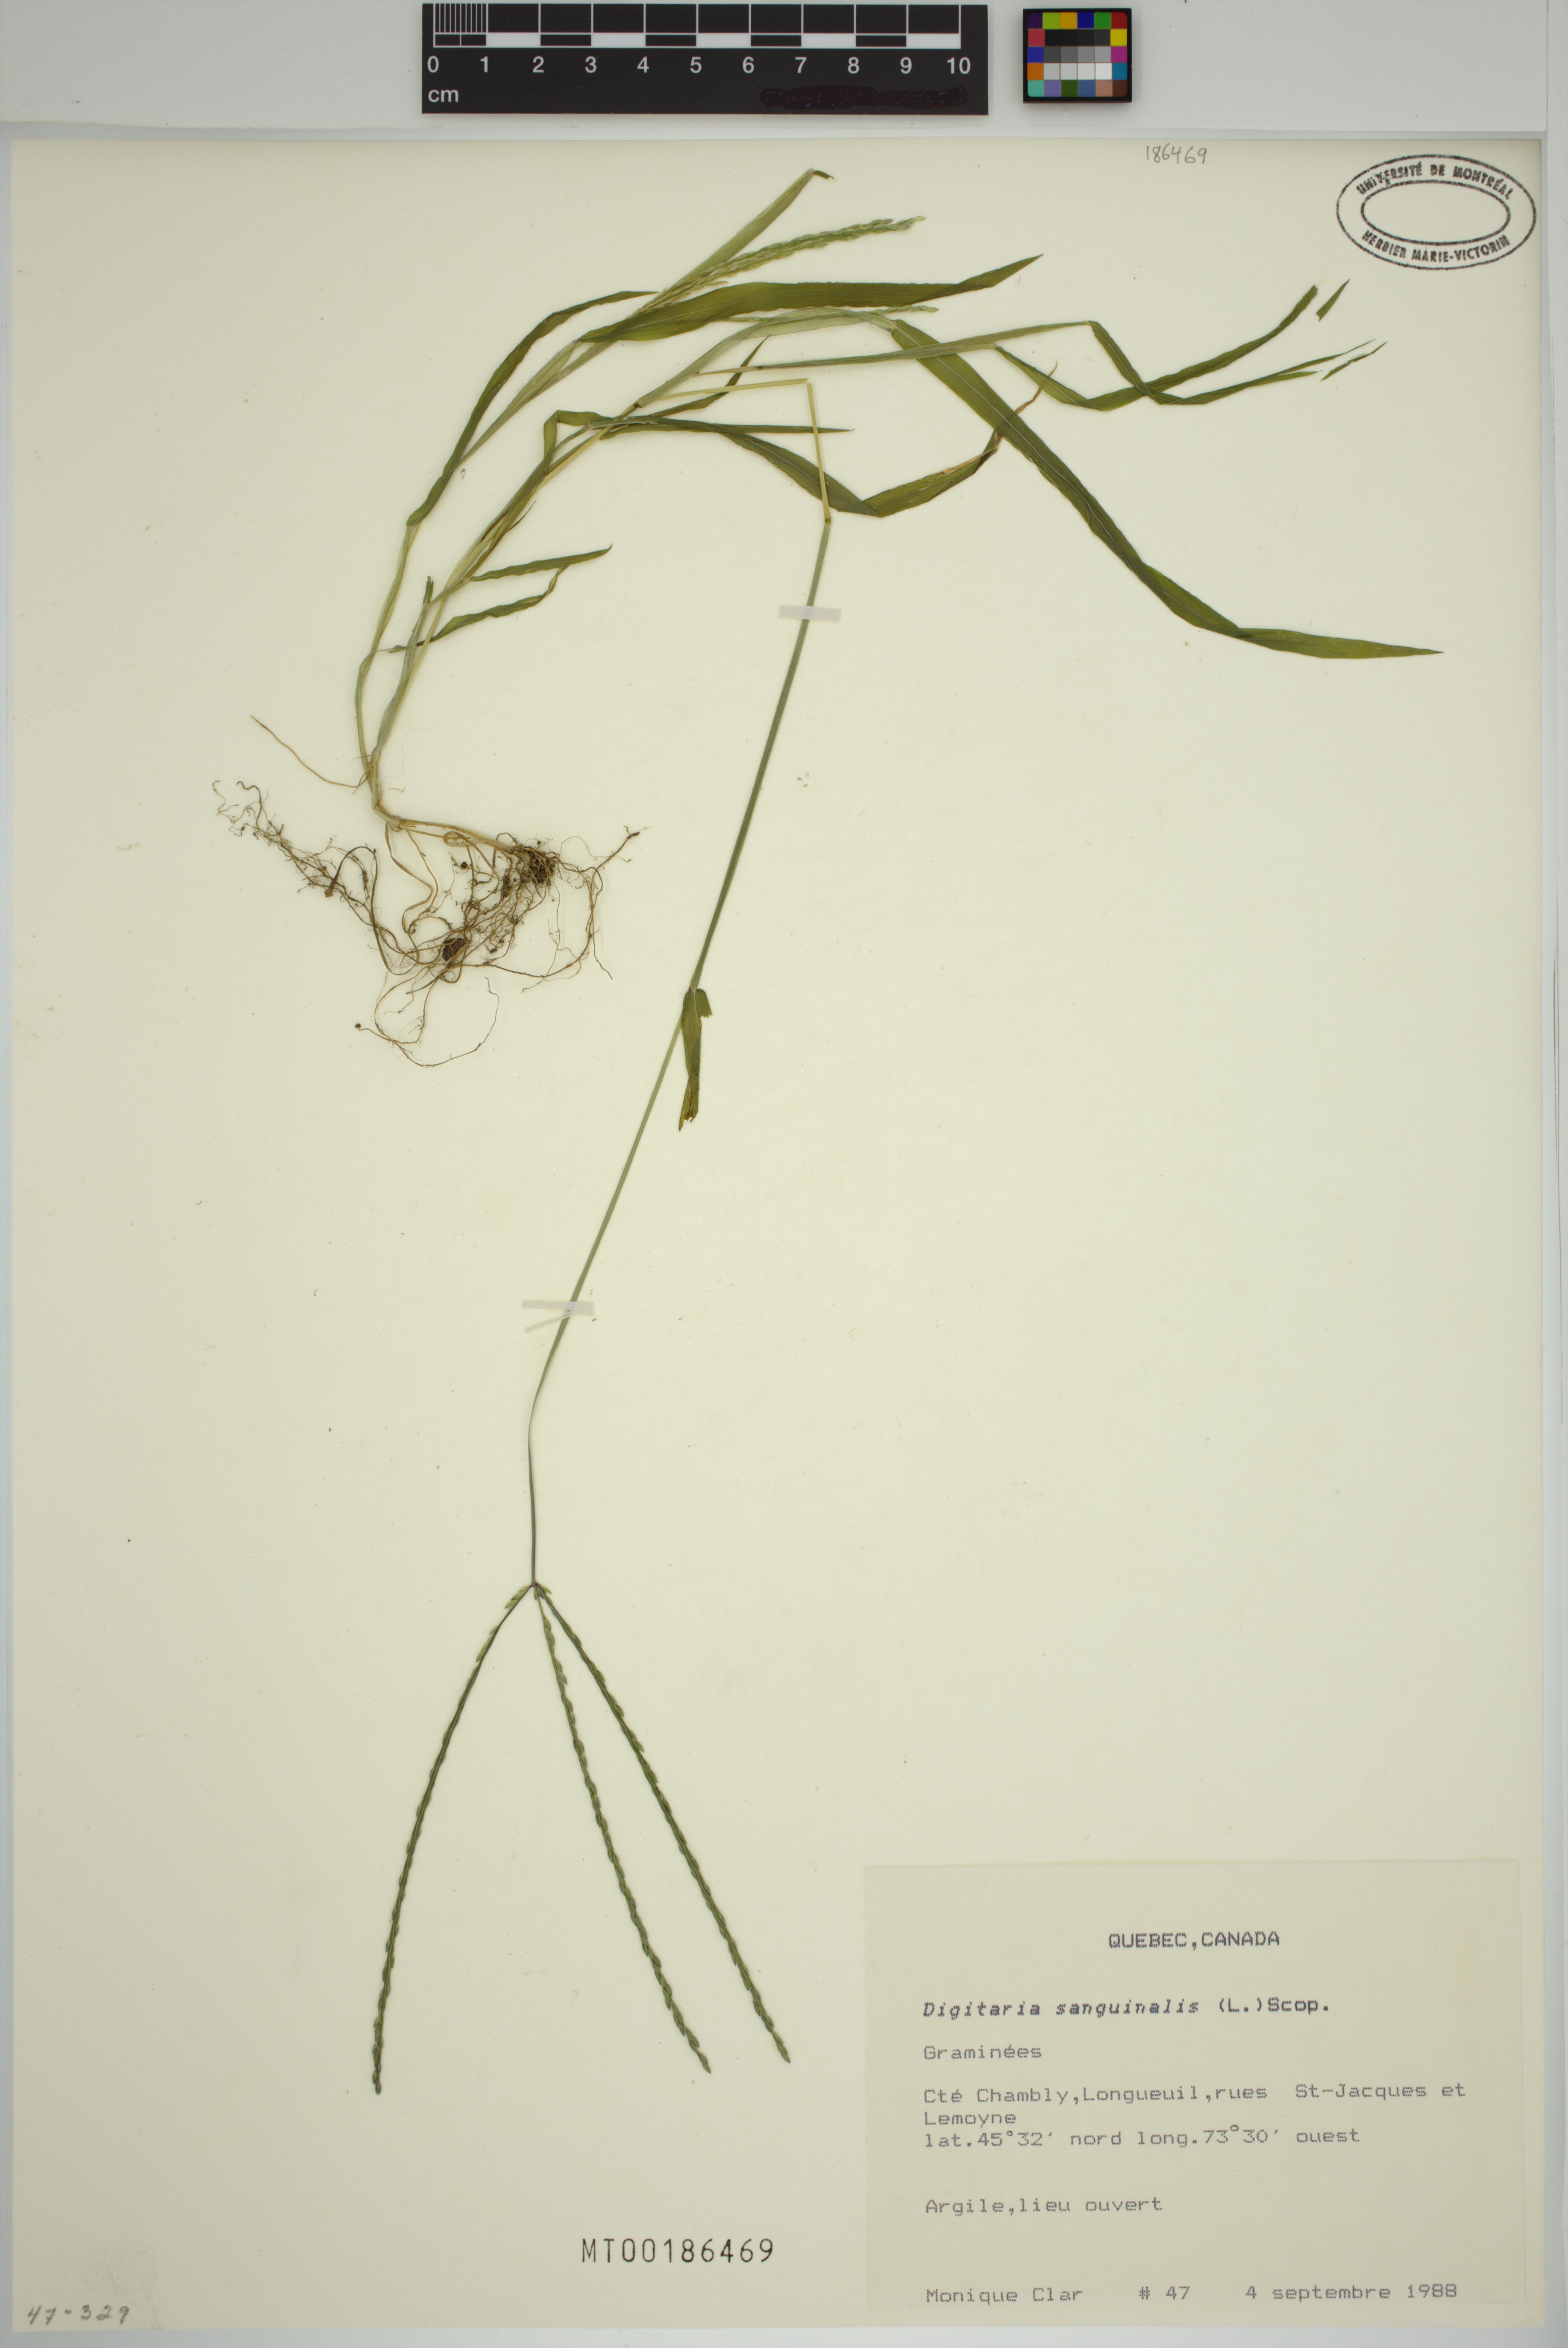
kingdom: Plantae
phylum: Tracheophyta
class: Liliopsida
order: Poales
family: Poaceae
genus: Digitaria
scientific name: Digitaria sanguinalis
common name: Hairy crabgrass
